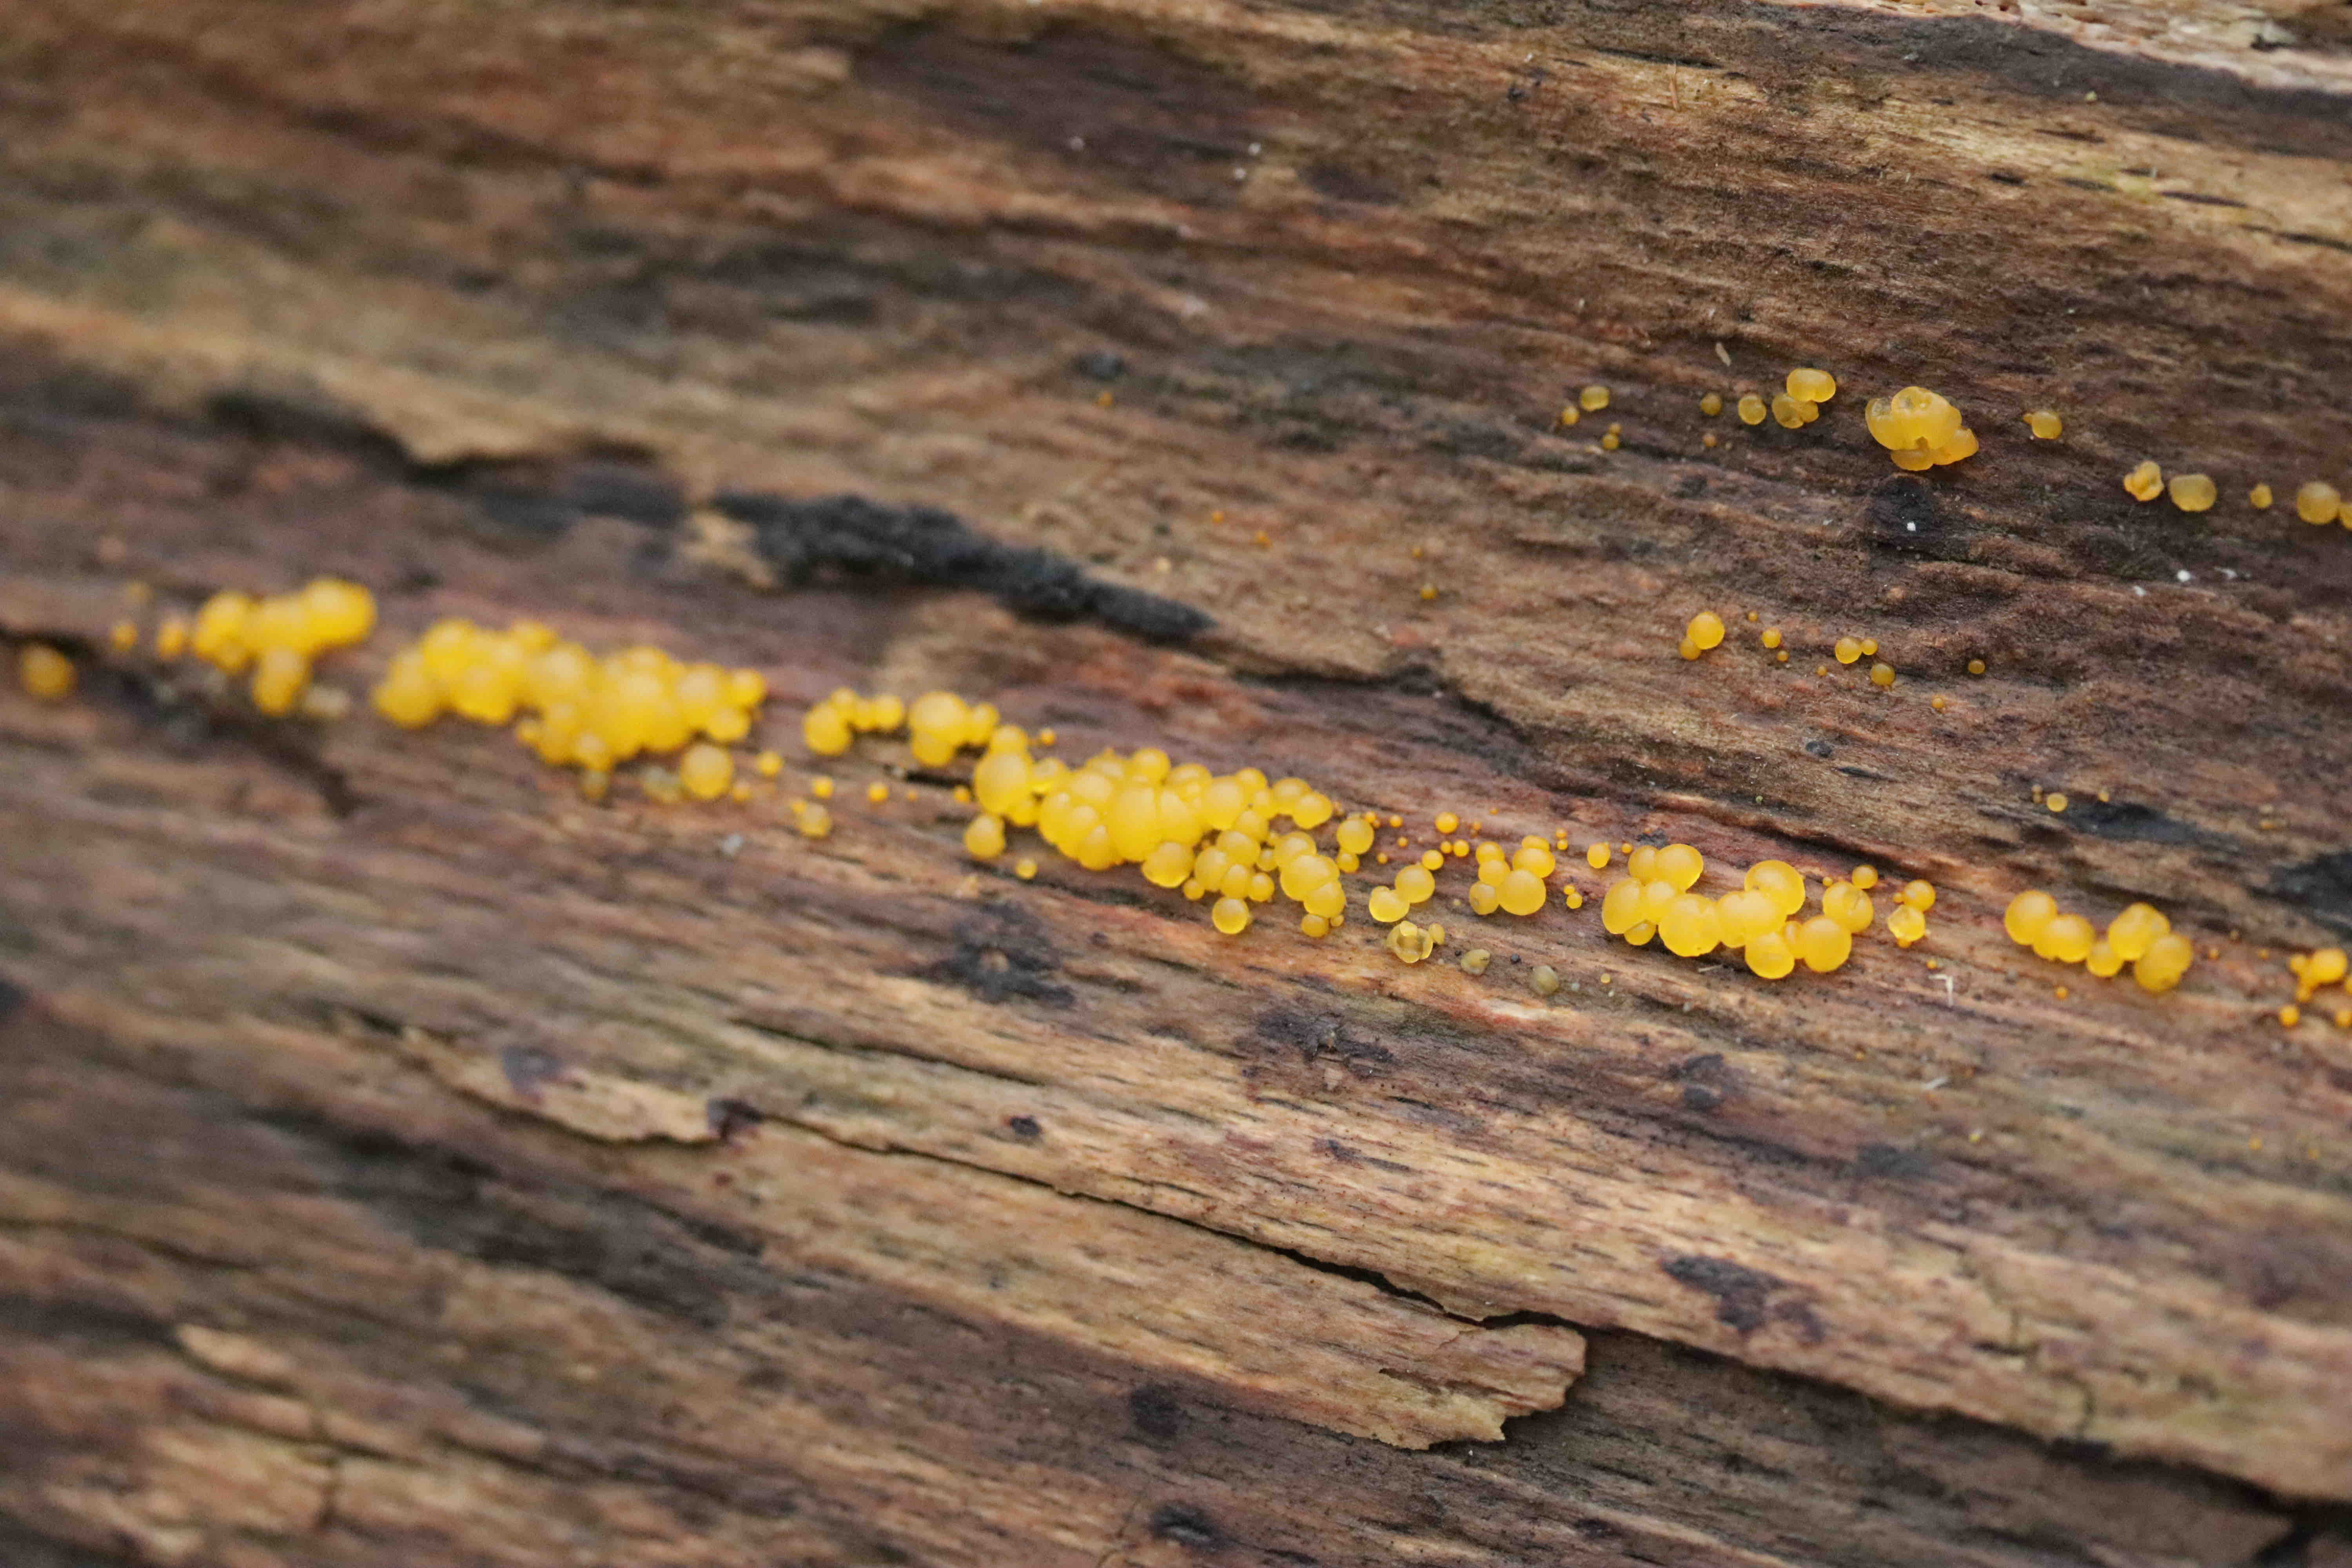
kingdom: Fungi
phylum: Basidiomycota
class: Dacrymycetes
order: Dacrymycetales
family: Dacrymycetaceae
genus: Dacrymyces
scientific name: Dacrymyces
